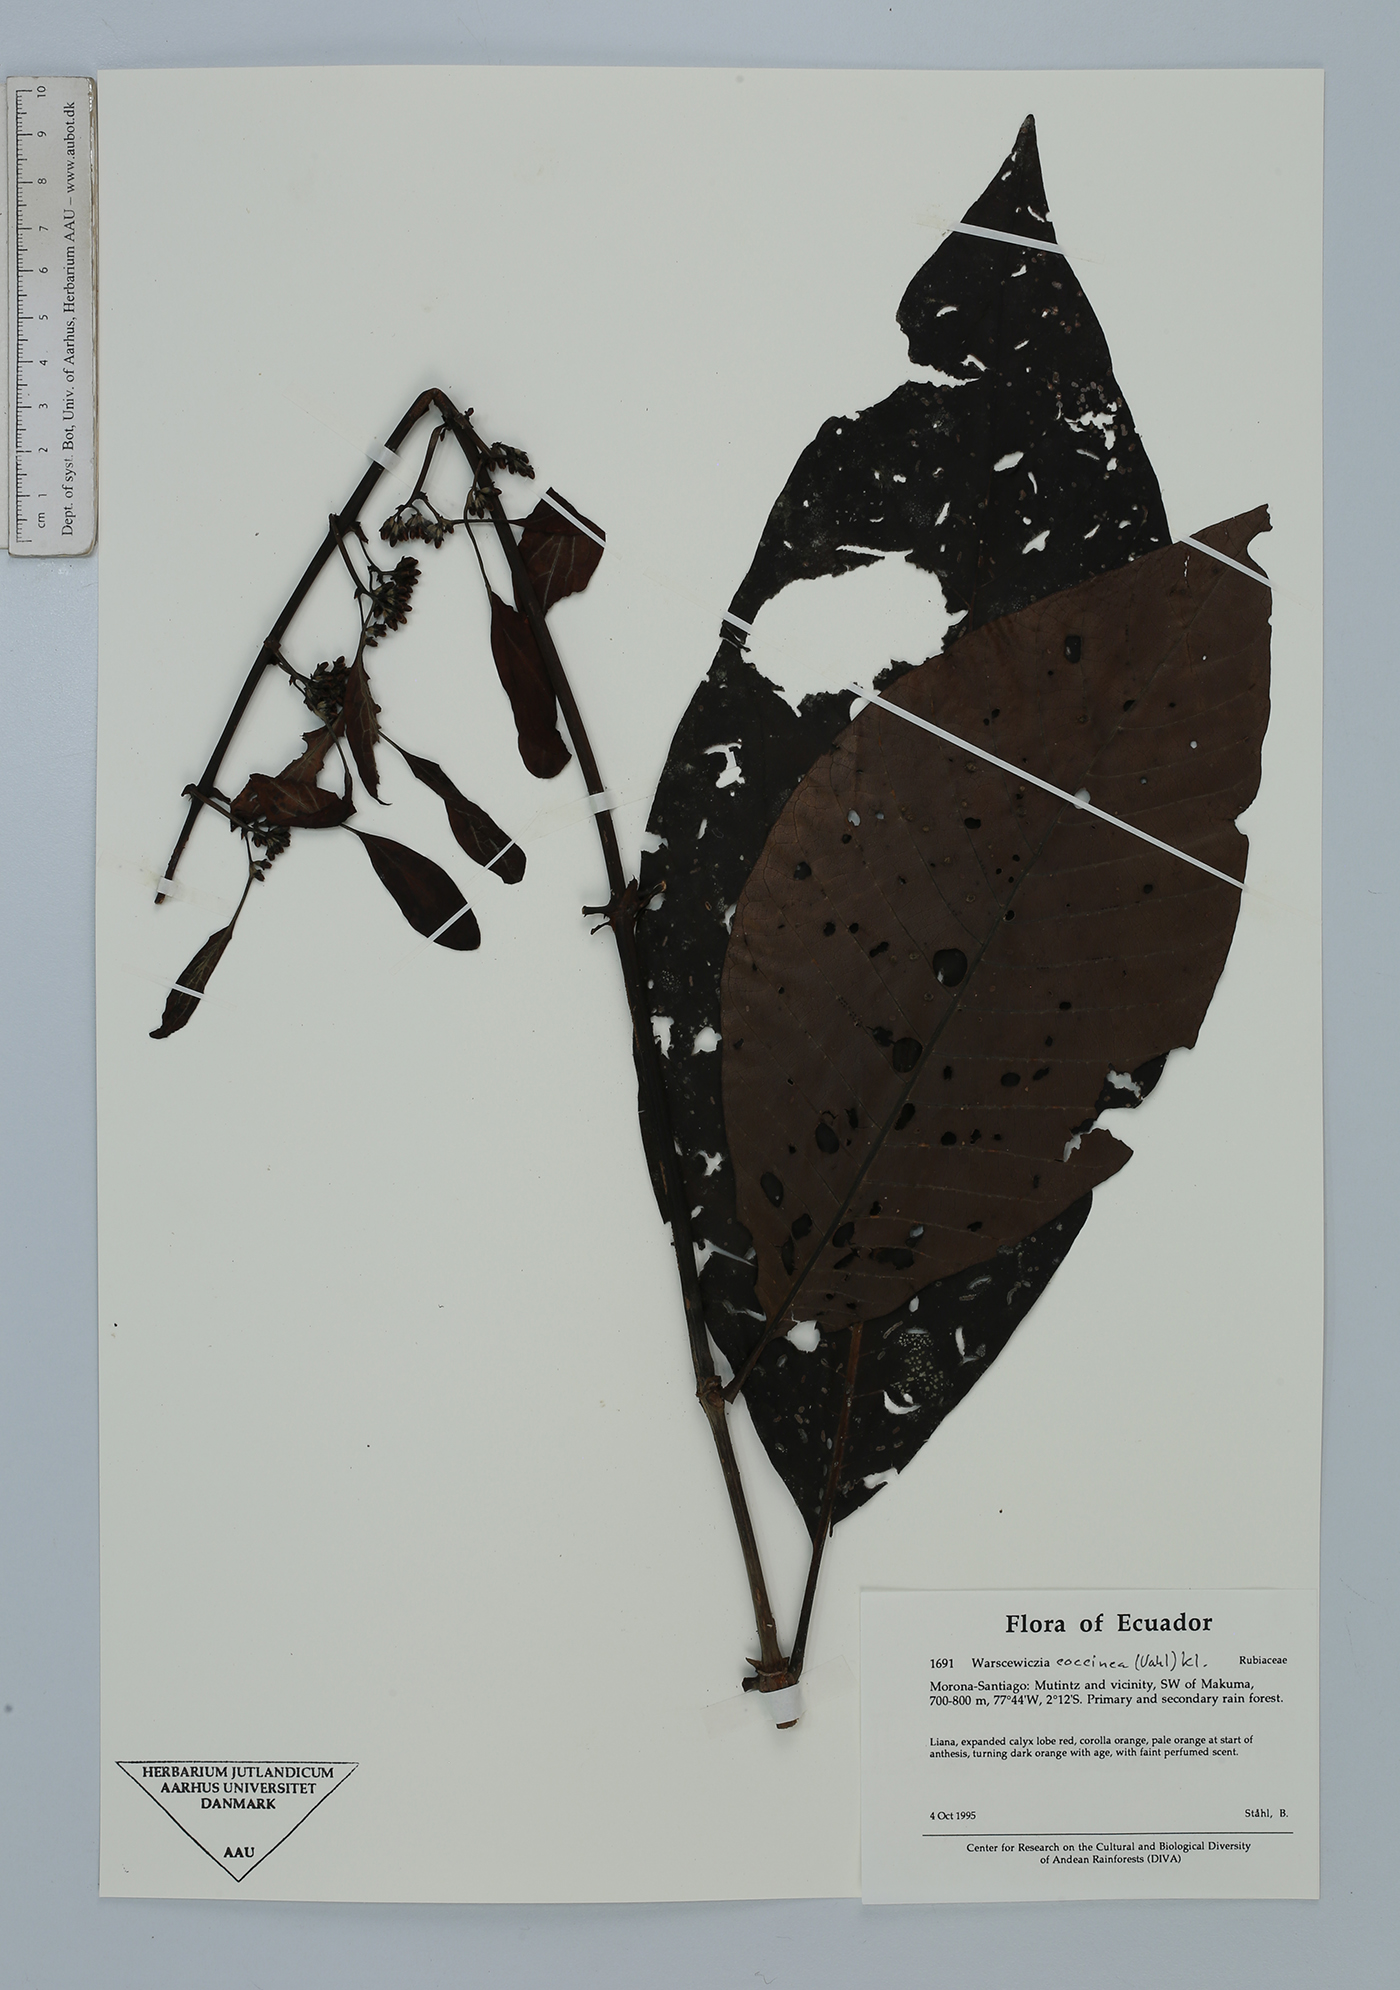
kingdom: Plantae
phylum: Tracheophyta
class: Magnoliopsida
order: Gentianales
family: Rubiaceae
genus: Warszewiczia
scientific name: Warszewiczia coccinea
